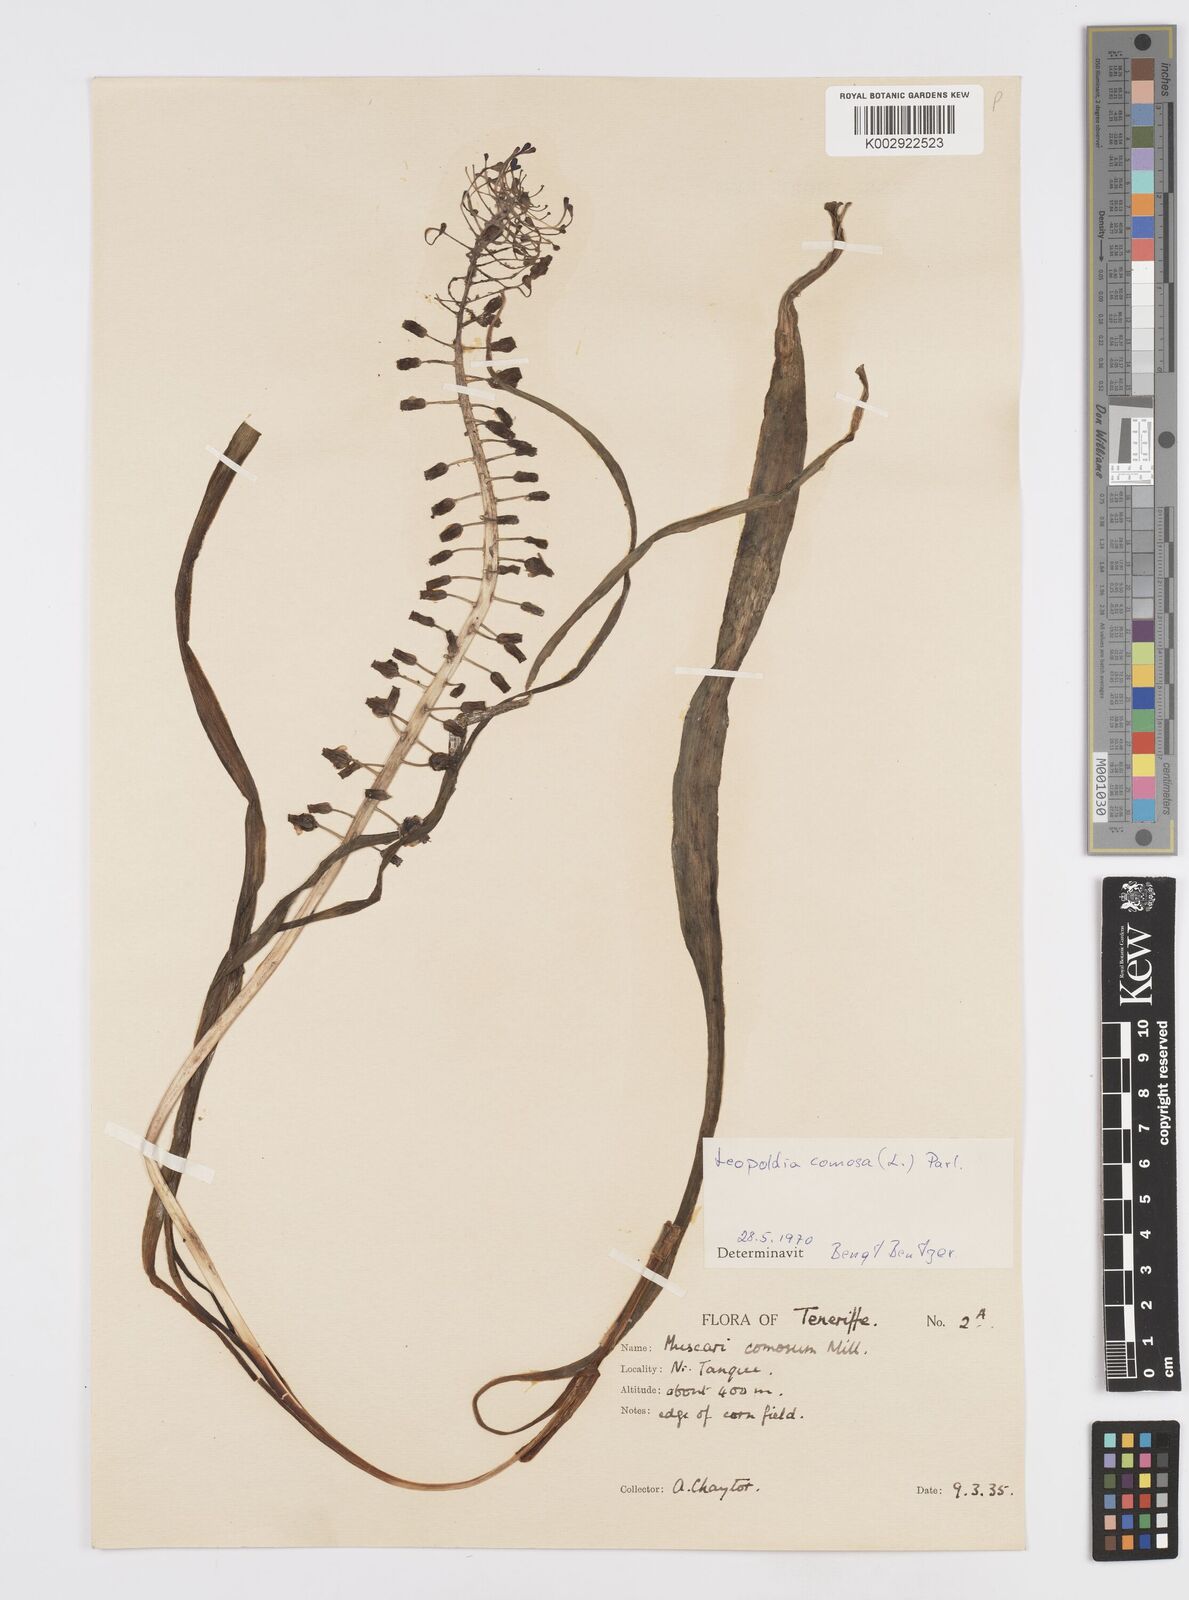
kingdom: Plantae
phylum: Tracheophyta
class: Liliopsida
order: Asparagales
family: Asparagaceae
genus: Muscari
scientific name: Muscari comosum
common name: Tassel hyacinth
